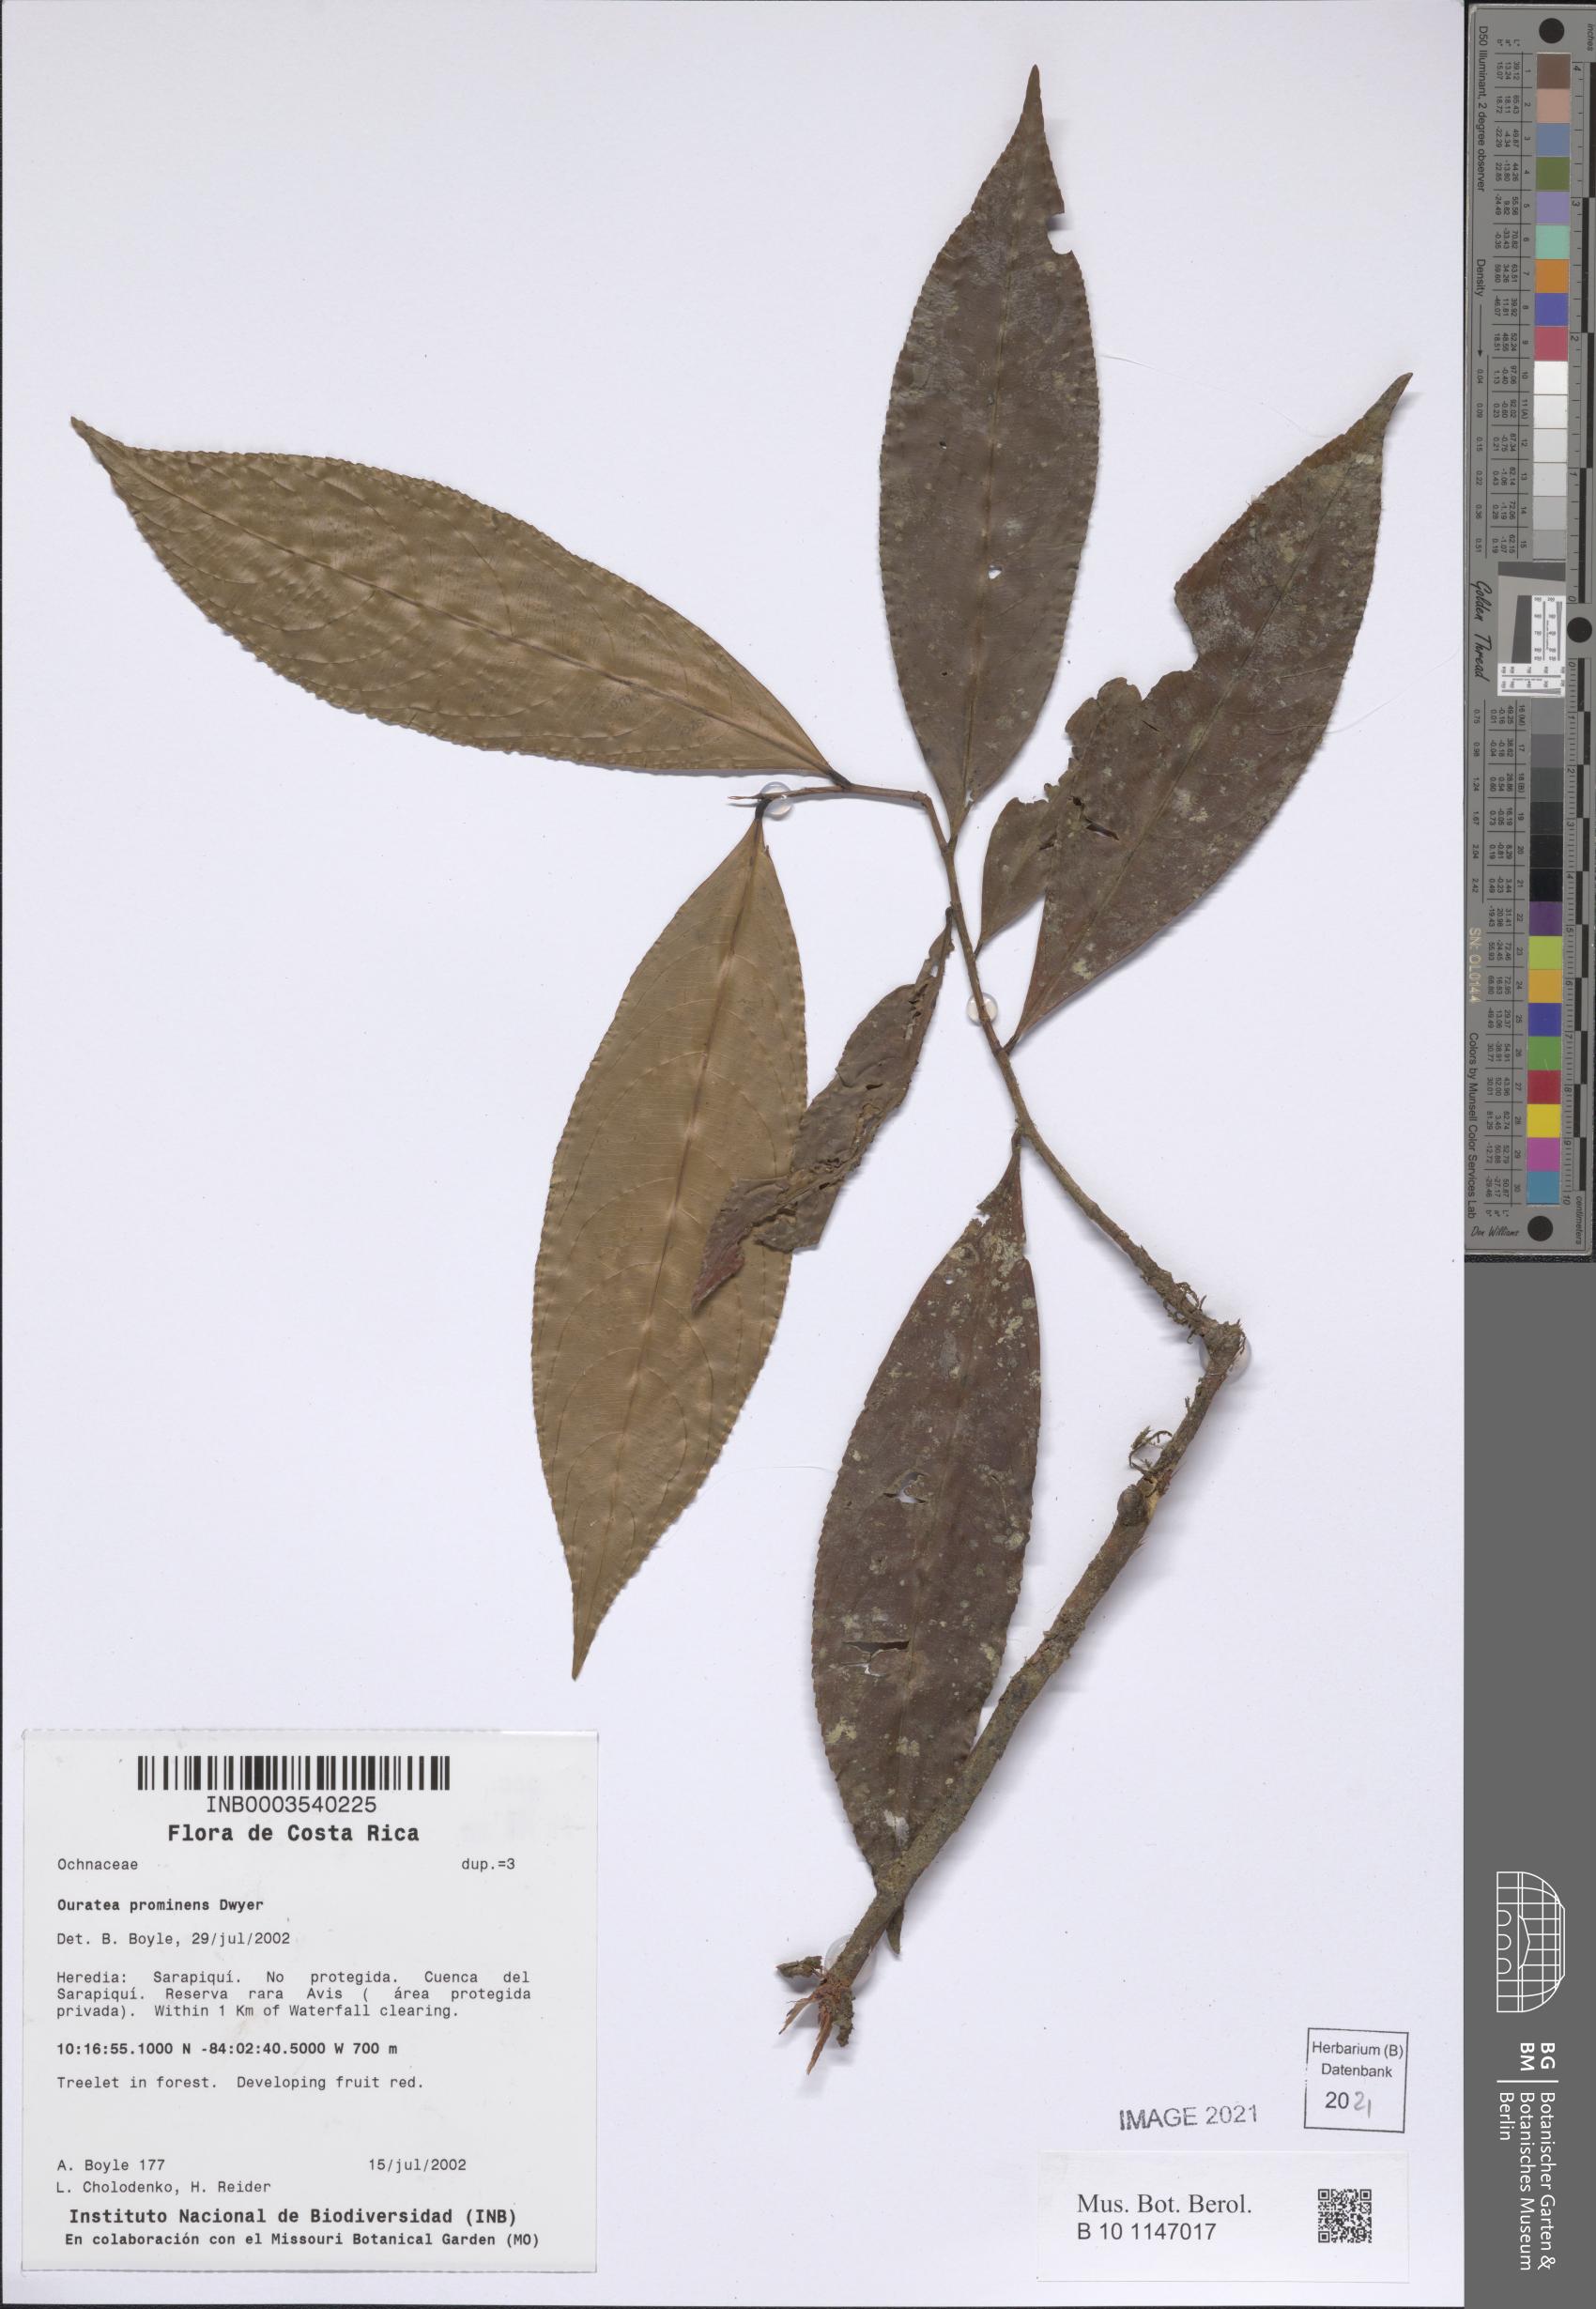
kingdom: Plantae
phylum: Tracheophyta
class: Magnoliopsida
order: Malpighiales
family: Ochnaceae
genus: Ouratea
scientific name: Ouratea prominens
